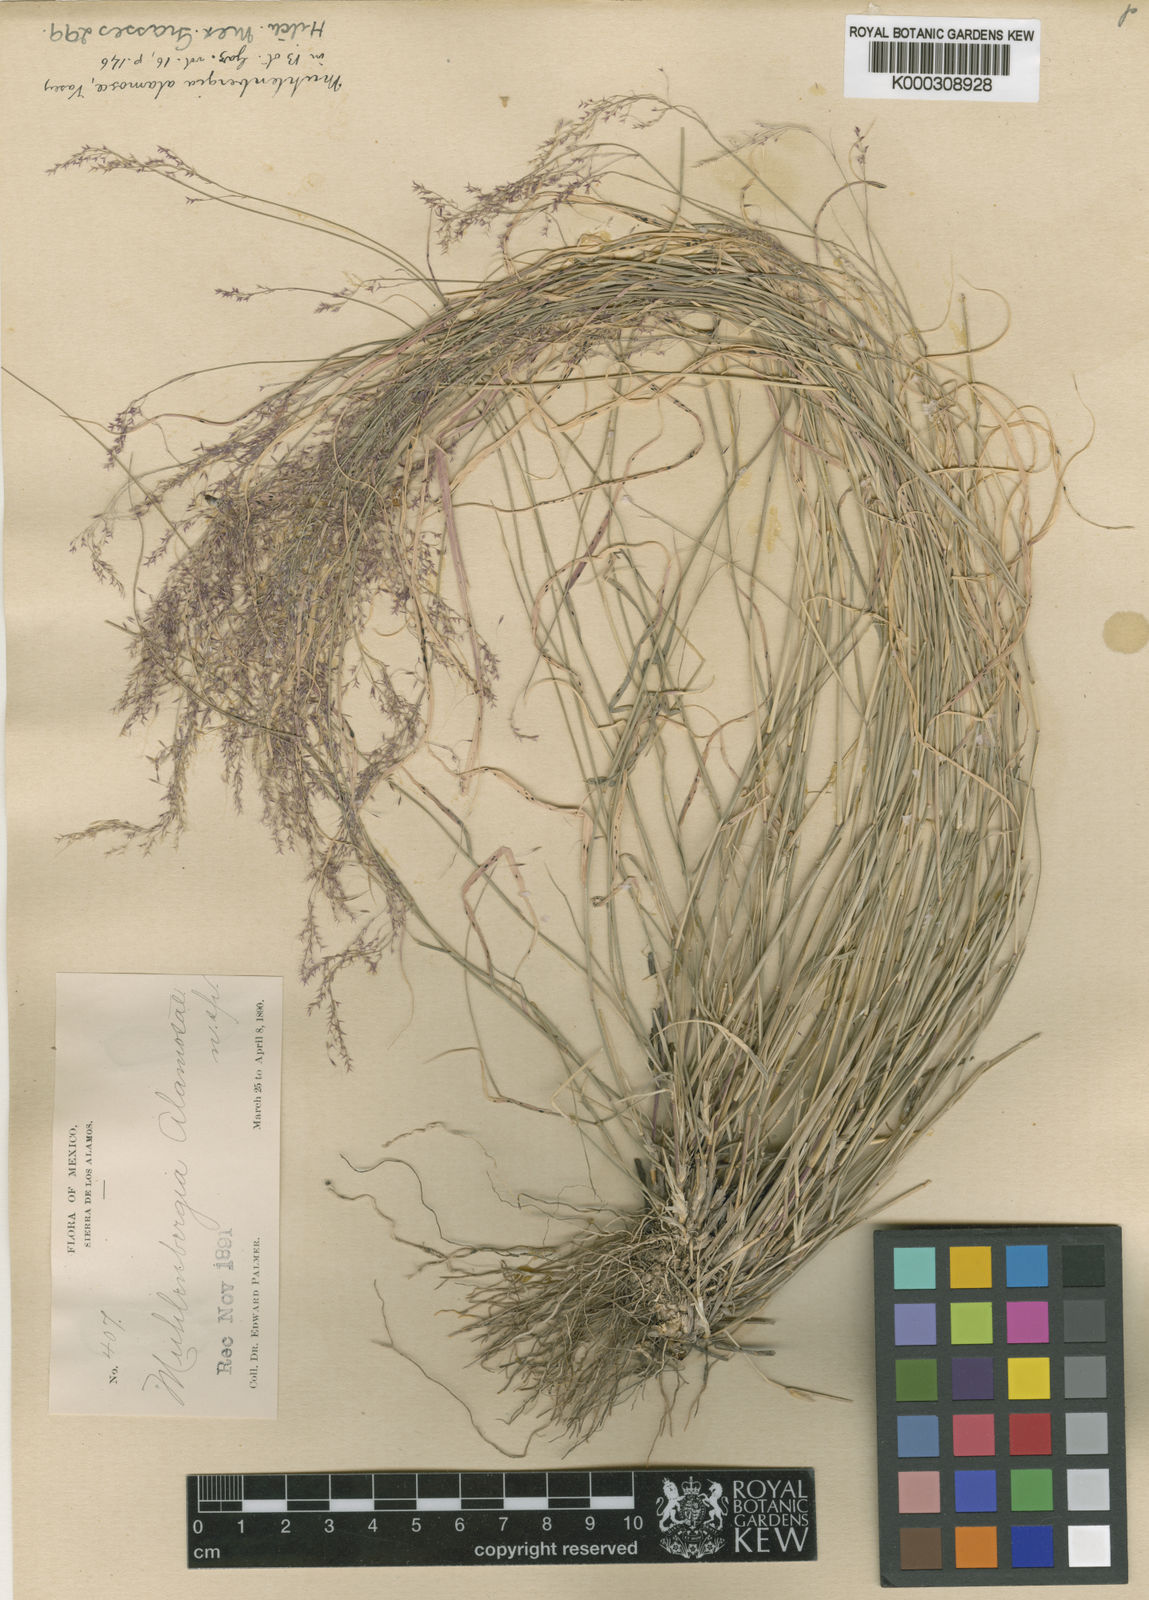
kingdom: Plantae
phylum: Tracheophyta
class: Liliopsida
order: Poales
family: Poaceae
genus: Muhlenbergia
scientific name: Muhlenbergia alamosae
